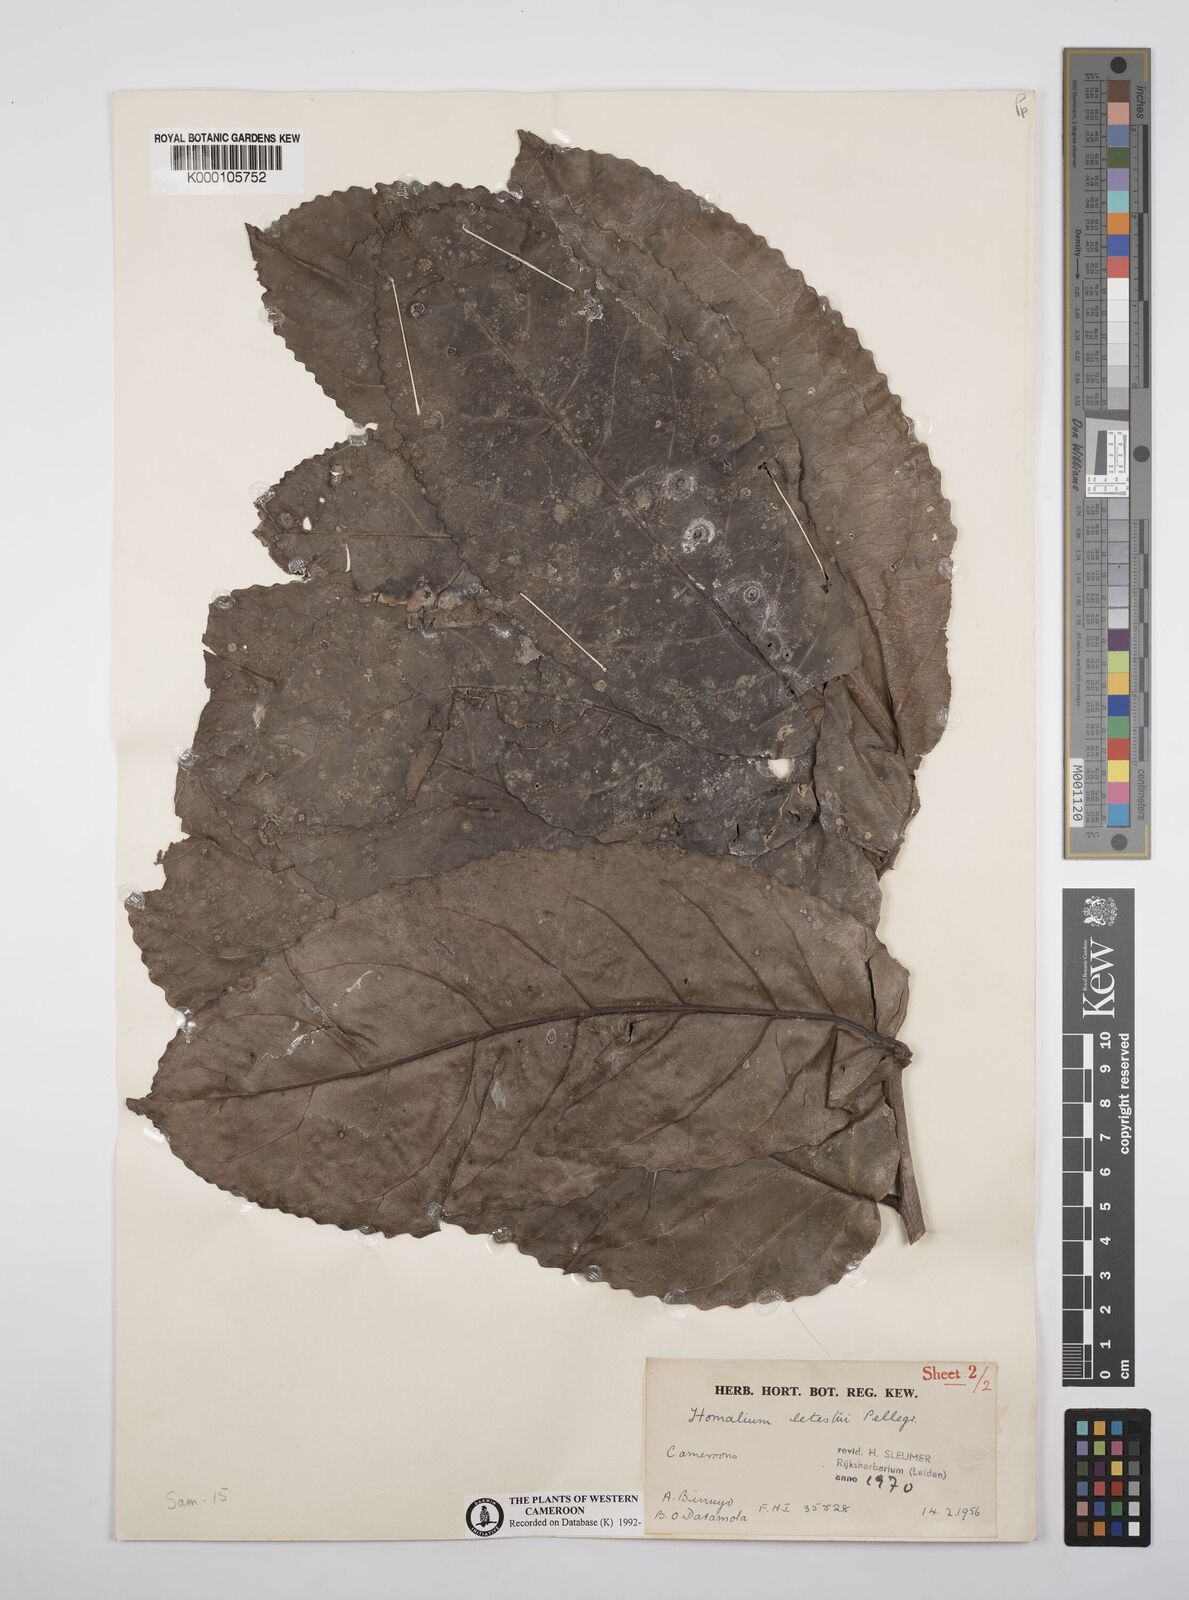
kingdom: Plantae
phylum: Tracheophyta
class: Magnoliopsida
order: Malpighiales
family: Salicaceae
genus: Homalium
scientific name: Homalium letestui
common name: African homalium
